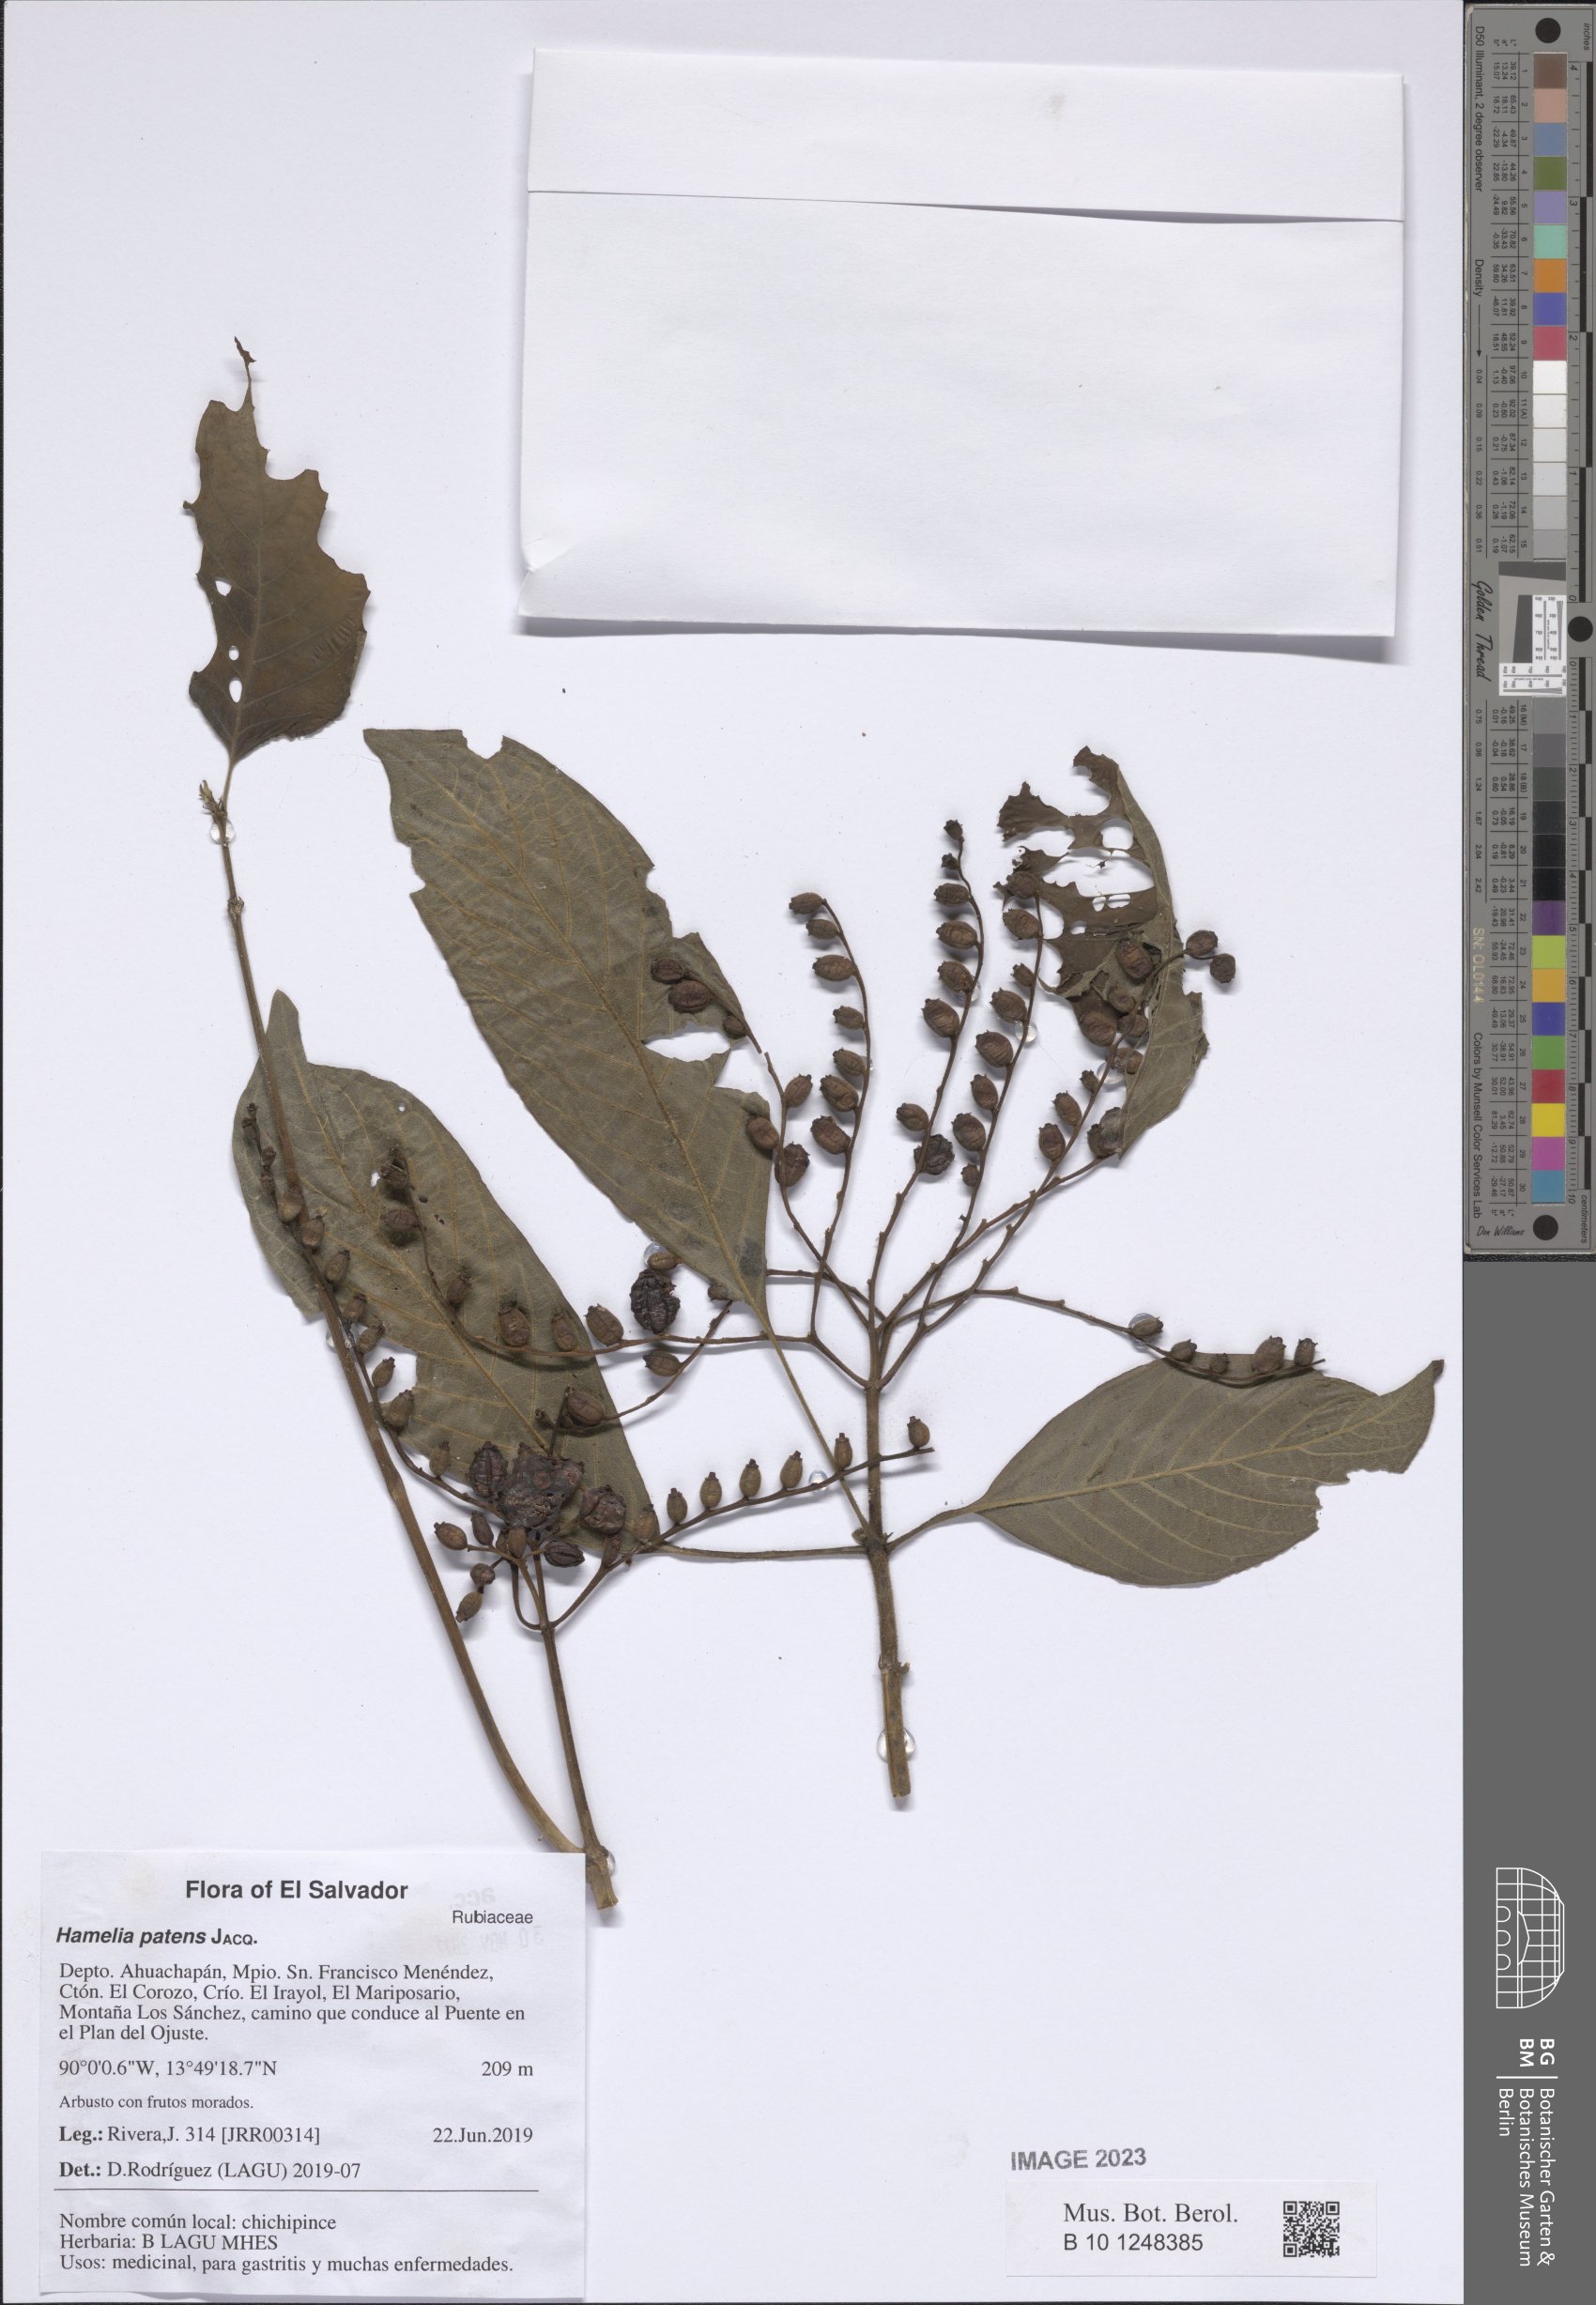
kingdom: Plantae
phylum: Tracheophyta
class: Magnoliopsida
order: Gentianales
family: Rubiaceae
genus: Hamelia
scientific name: Hamelia patens
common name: Redhead
